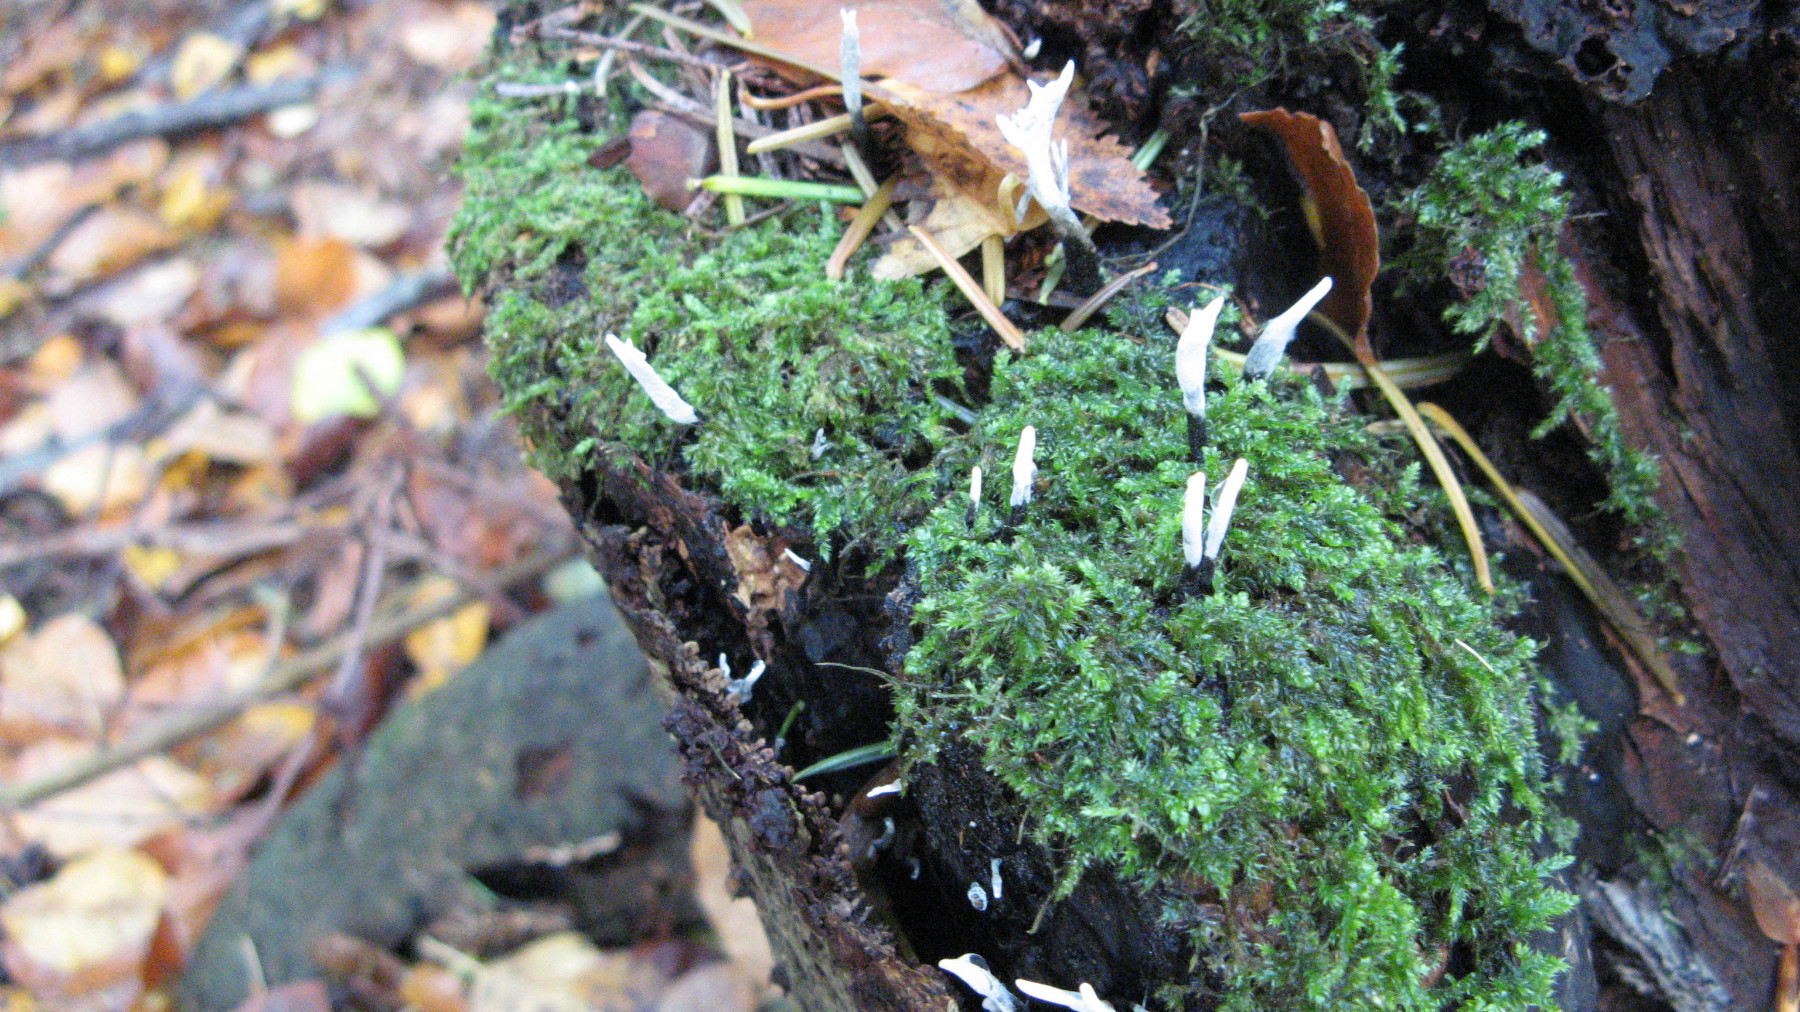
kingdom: Fungi
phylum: Ascomycota
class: Sordariomycetes
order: Xylariales
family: Xylariaceae
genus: Xylaria
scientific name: Xylaria hypoxylon
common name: grenet stødsvamp
